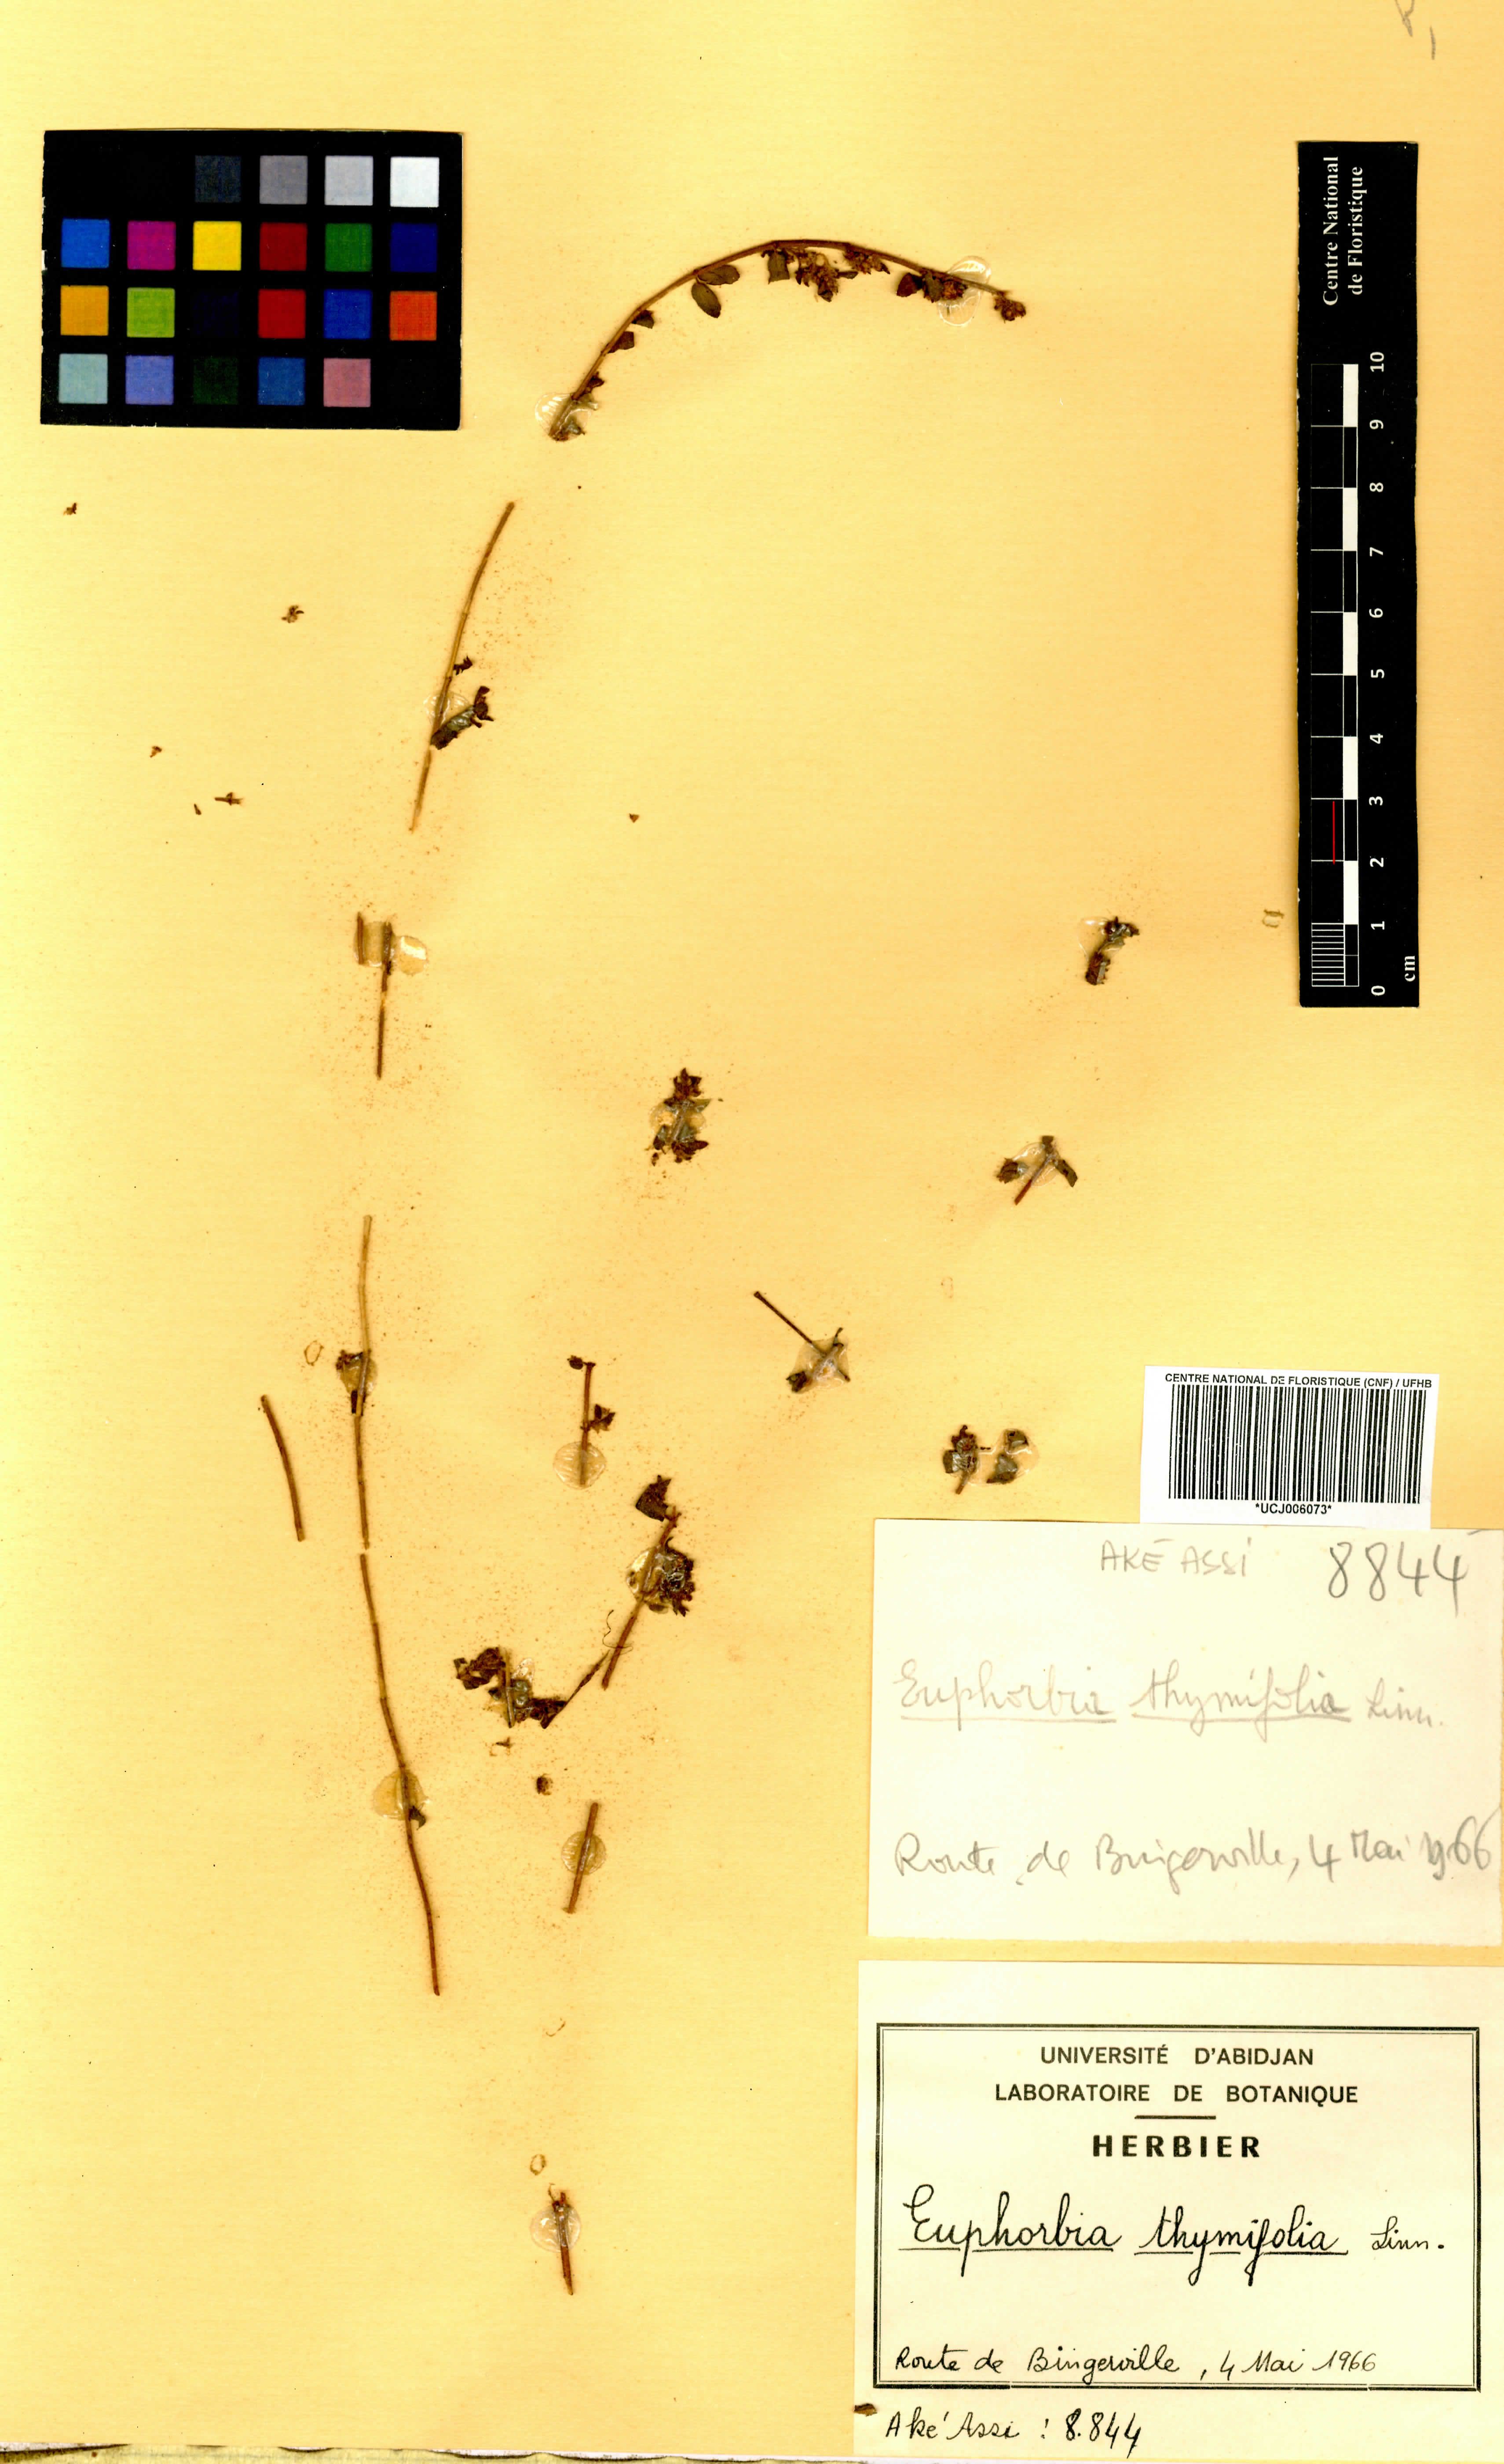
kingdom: Plantae
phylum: Tracheophyta
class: Magnoliopsida
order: Malpighiales
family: Euphorbiaceae
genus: Euphorbia
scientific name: Euphorbia thymifolia
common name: Gulf sandmat
